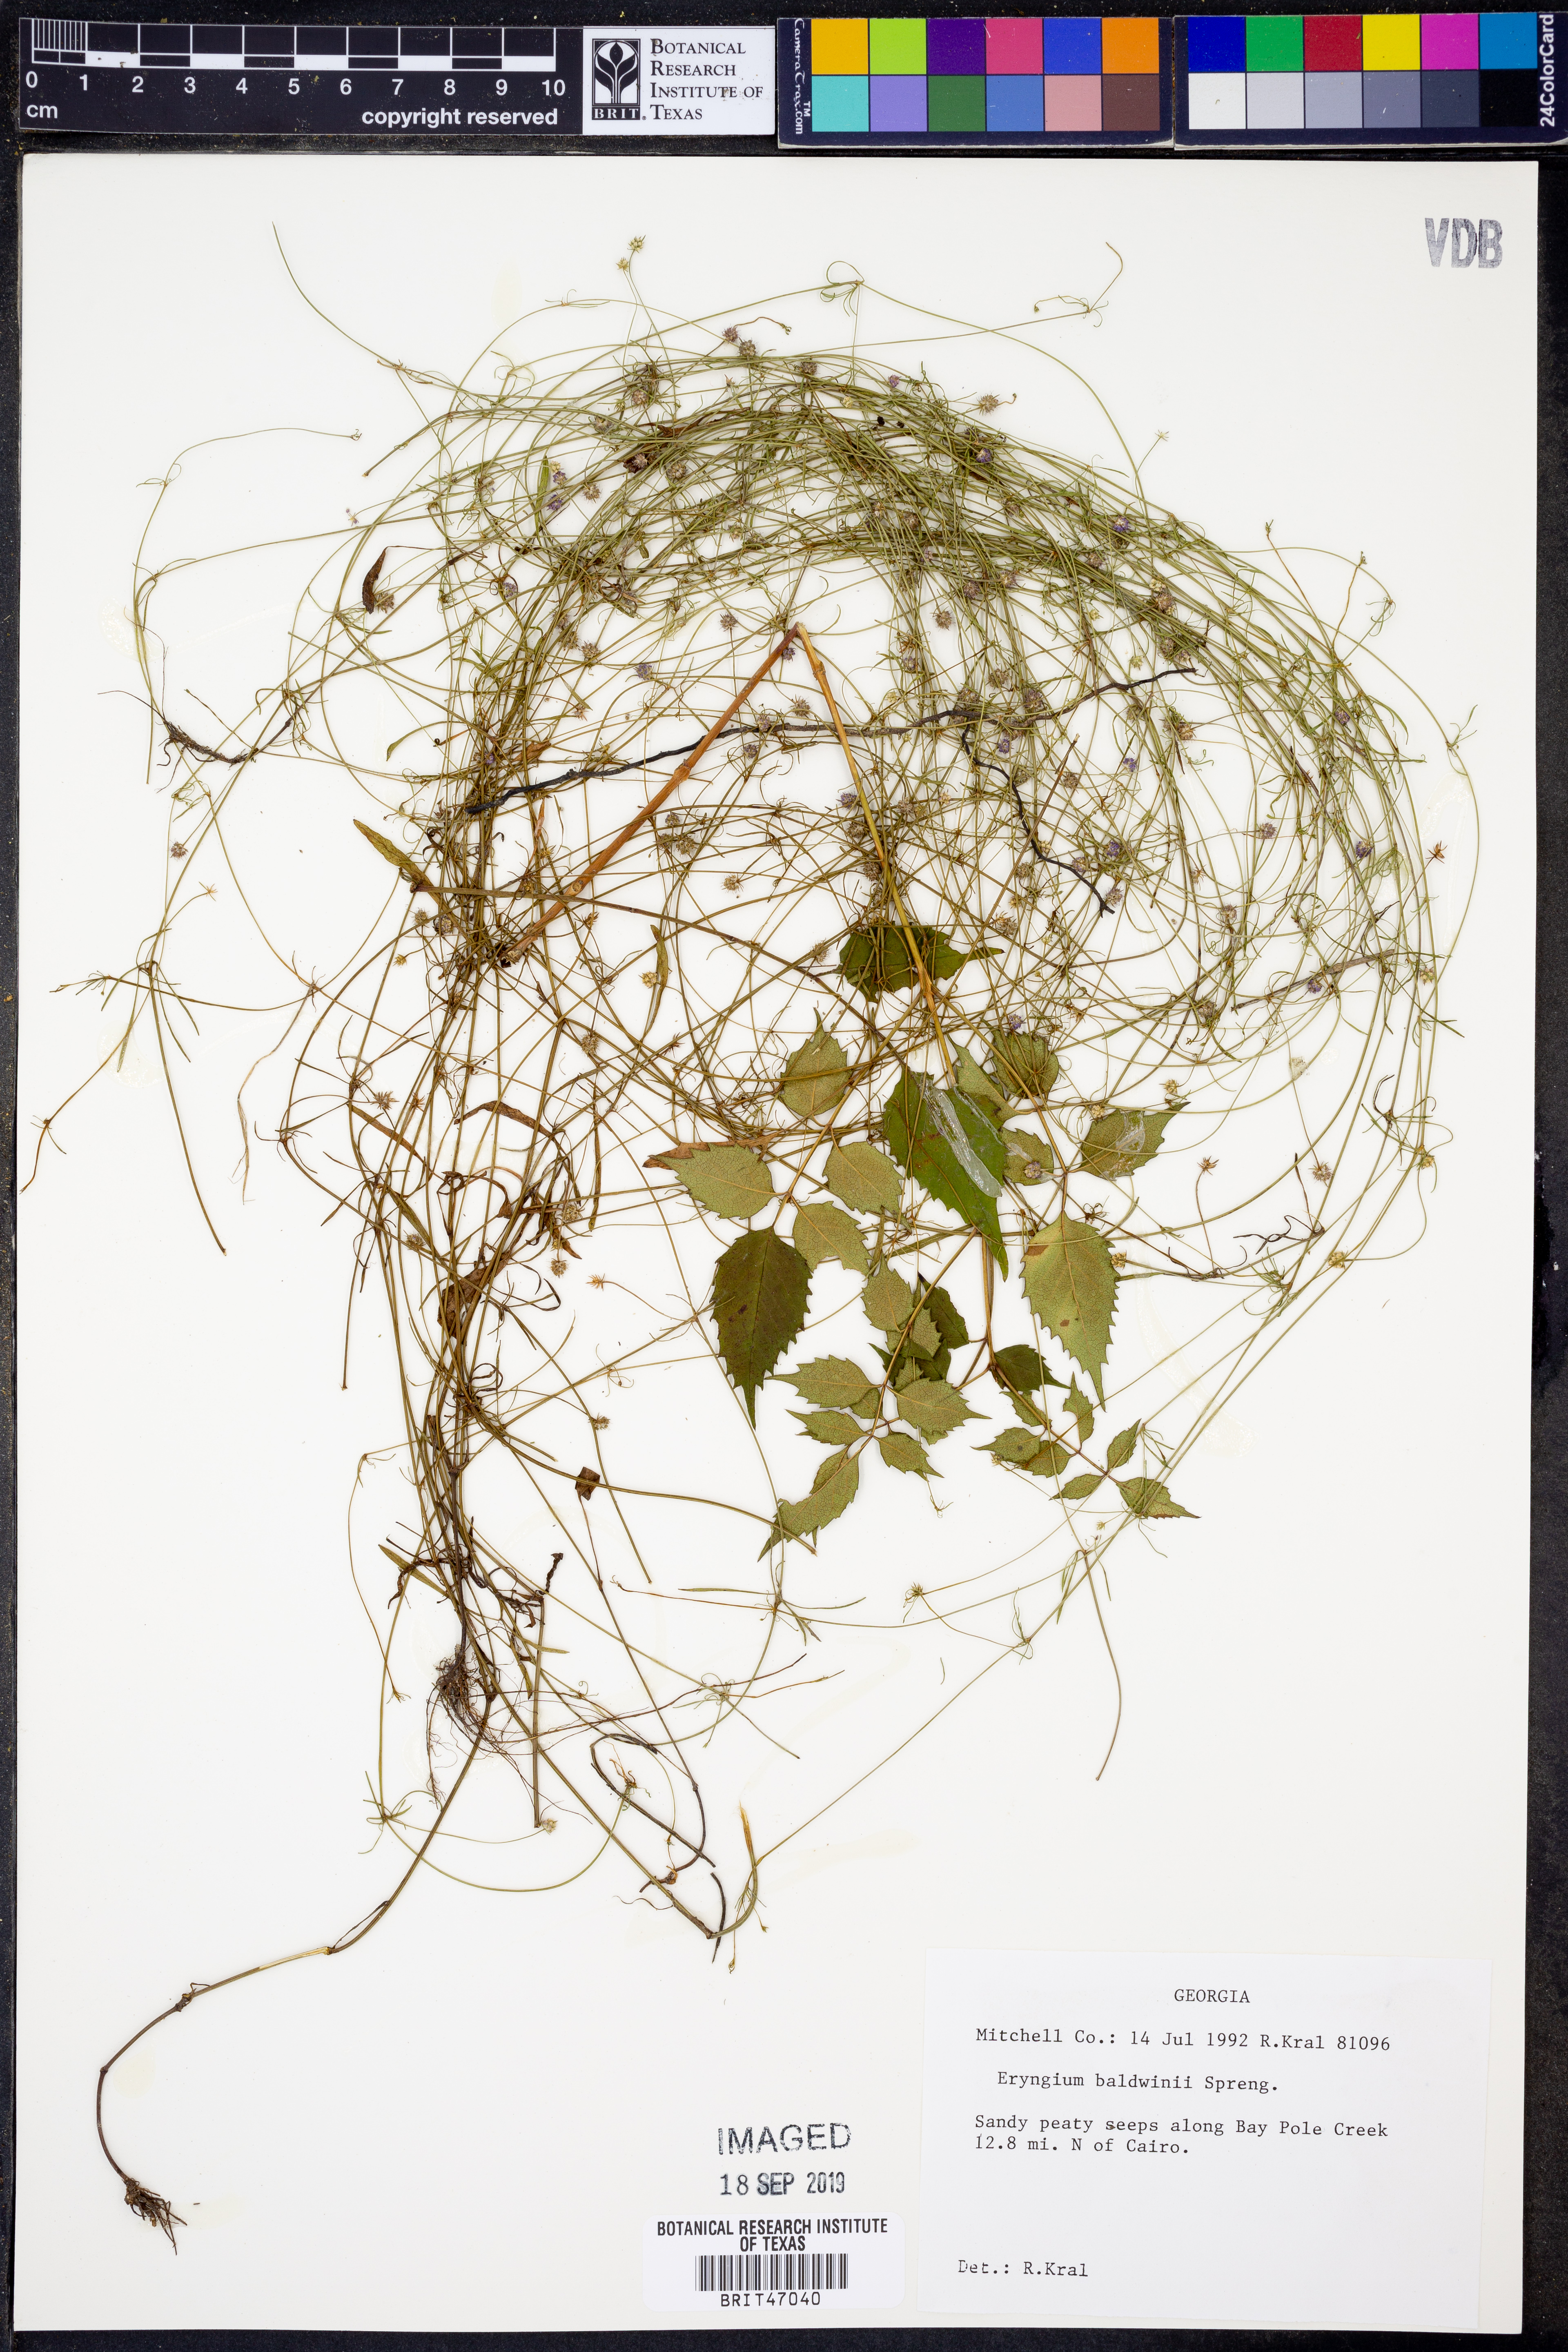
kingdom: Plantae
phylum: Tracheophyta
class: Magnoliopsida
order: Apiales
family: Apiaceae
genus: Eryngium
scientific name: Eryngium baldwinii
